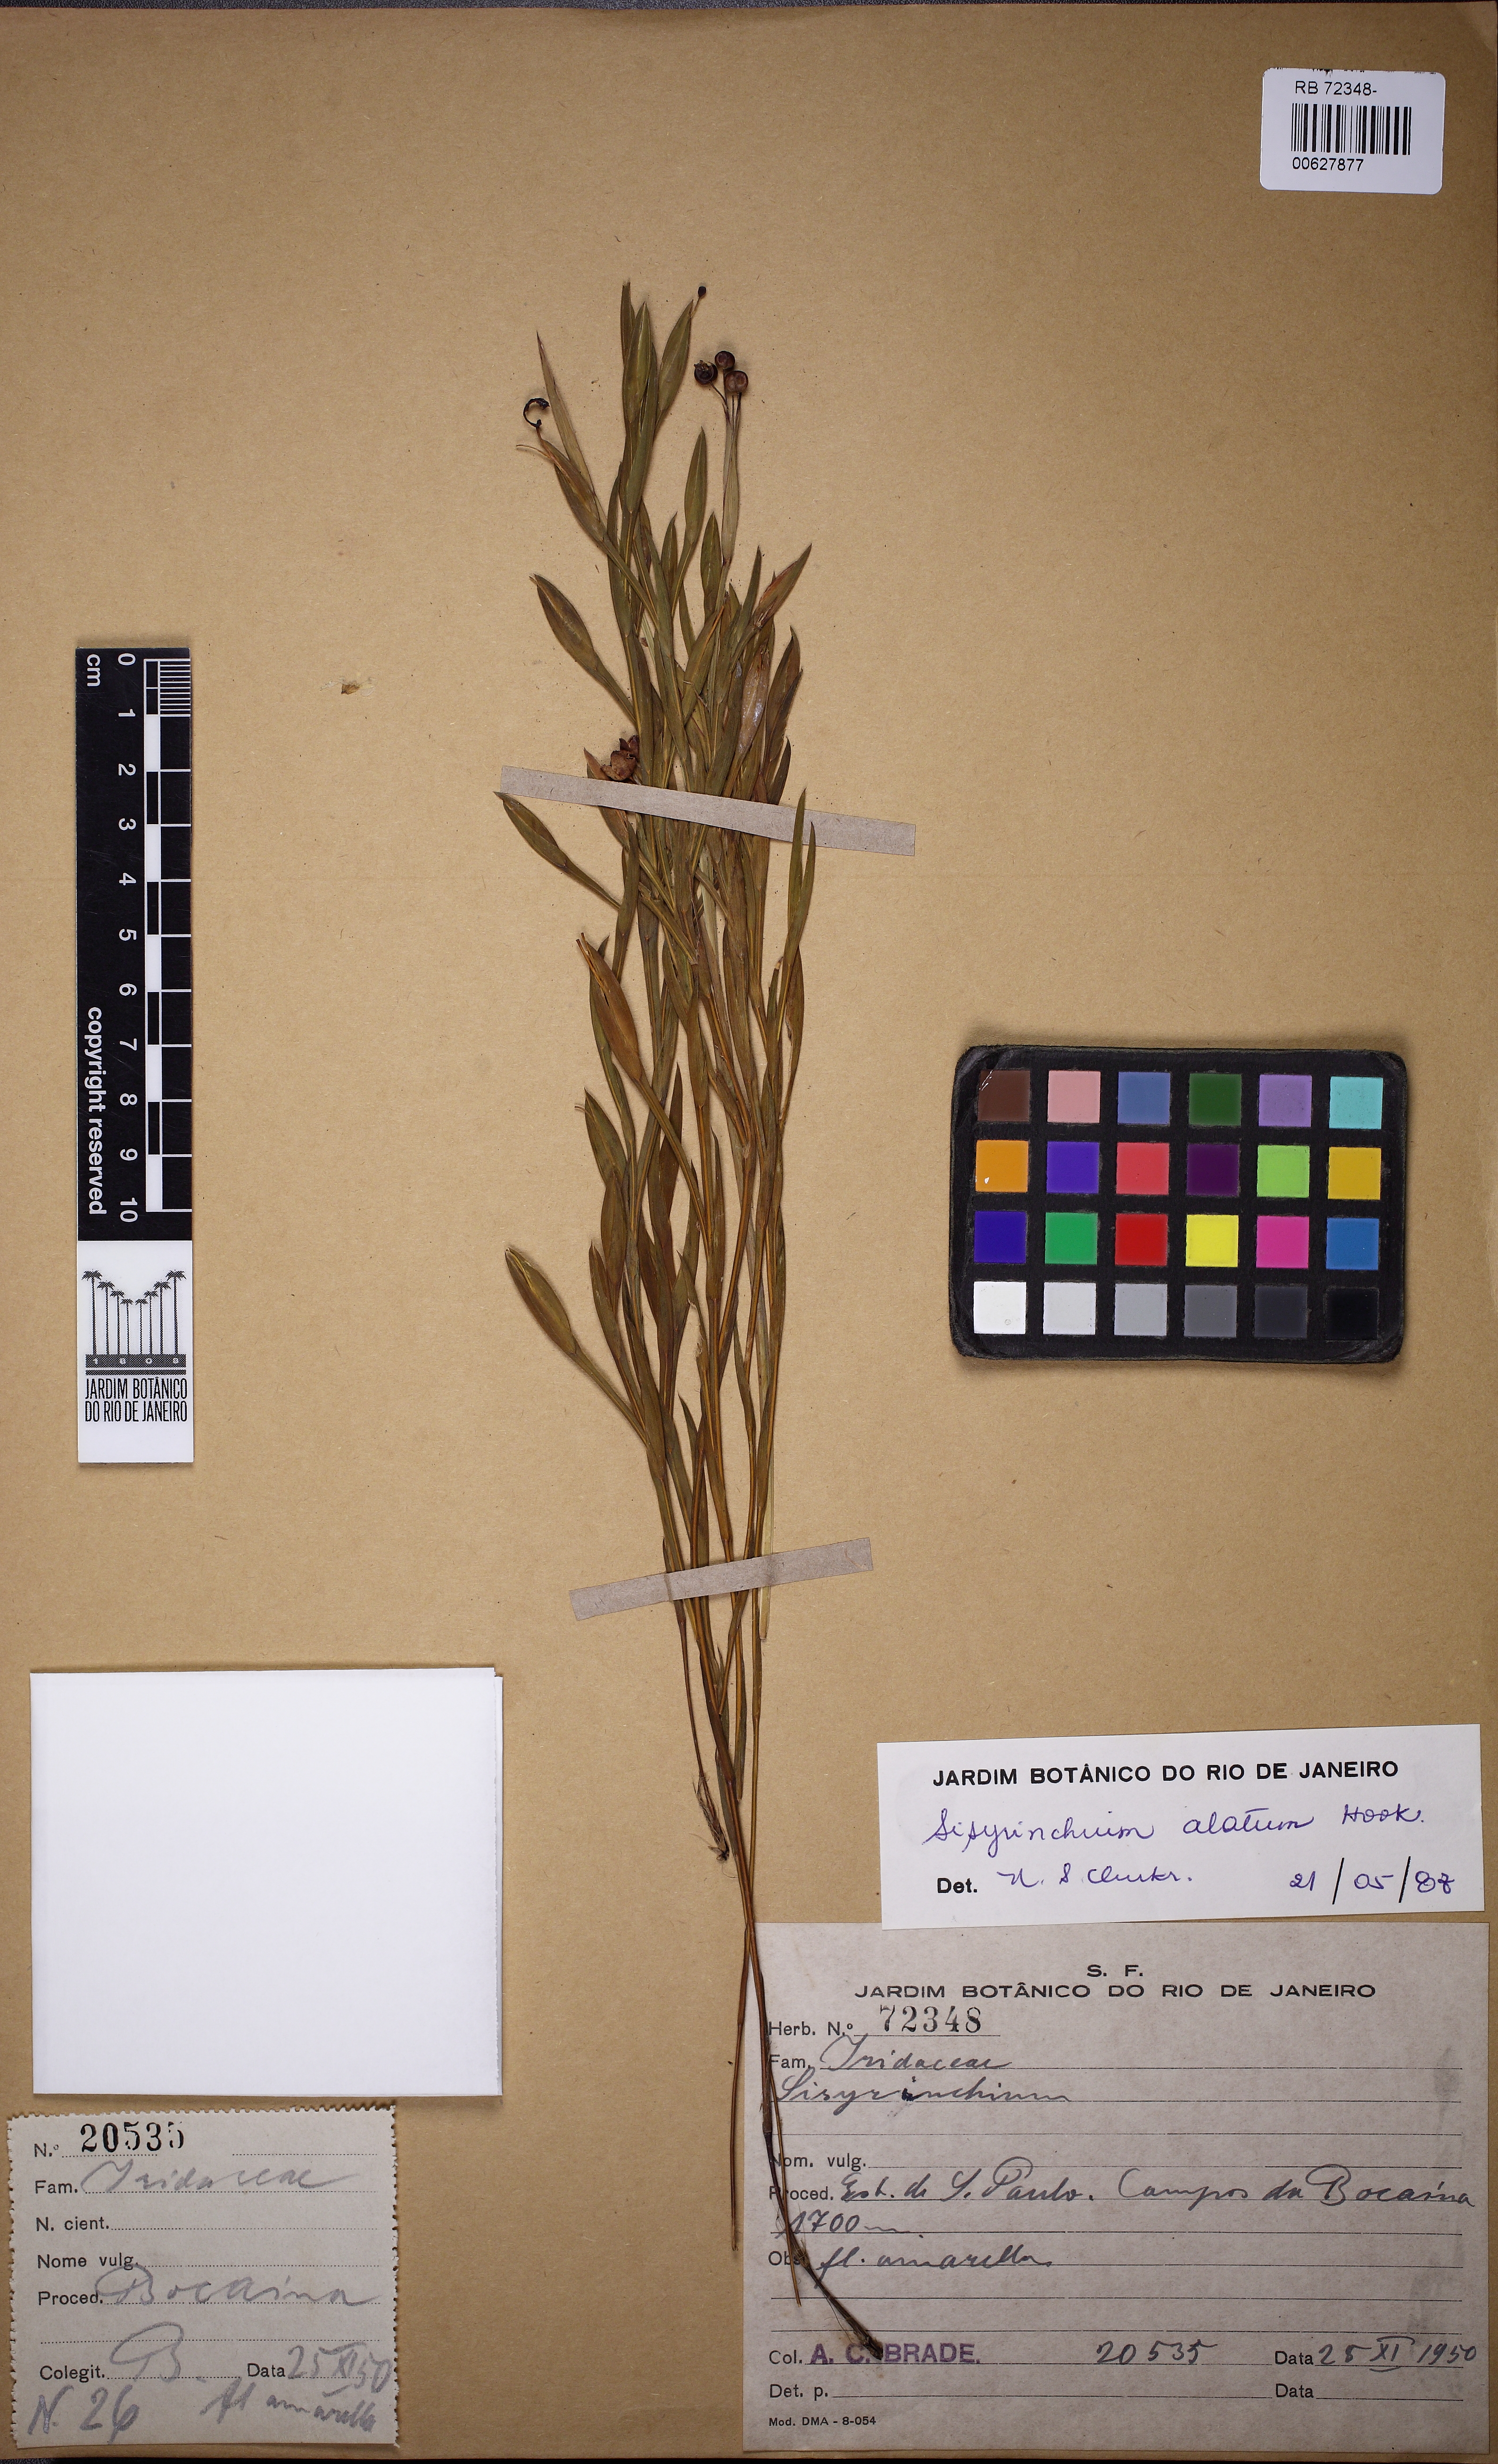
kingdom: Plantae
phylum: Tracheophyta
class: Liliopsida
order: Asparagales
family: Iridaceae
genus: Sisyrinchium
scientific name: Sisyrinchium vaginatum
